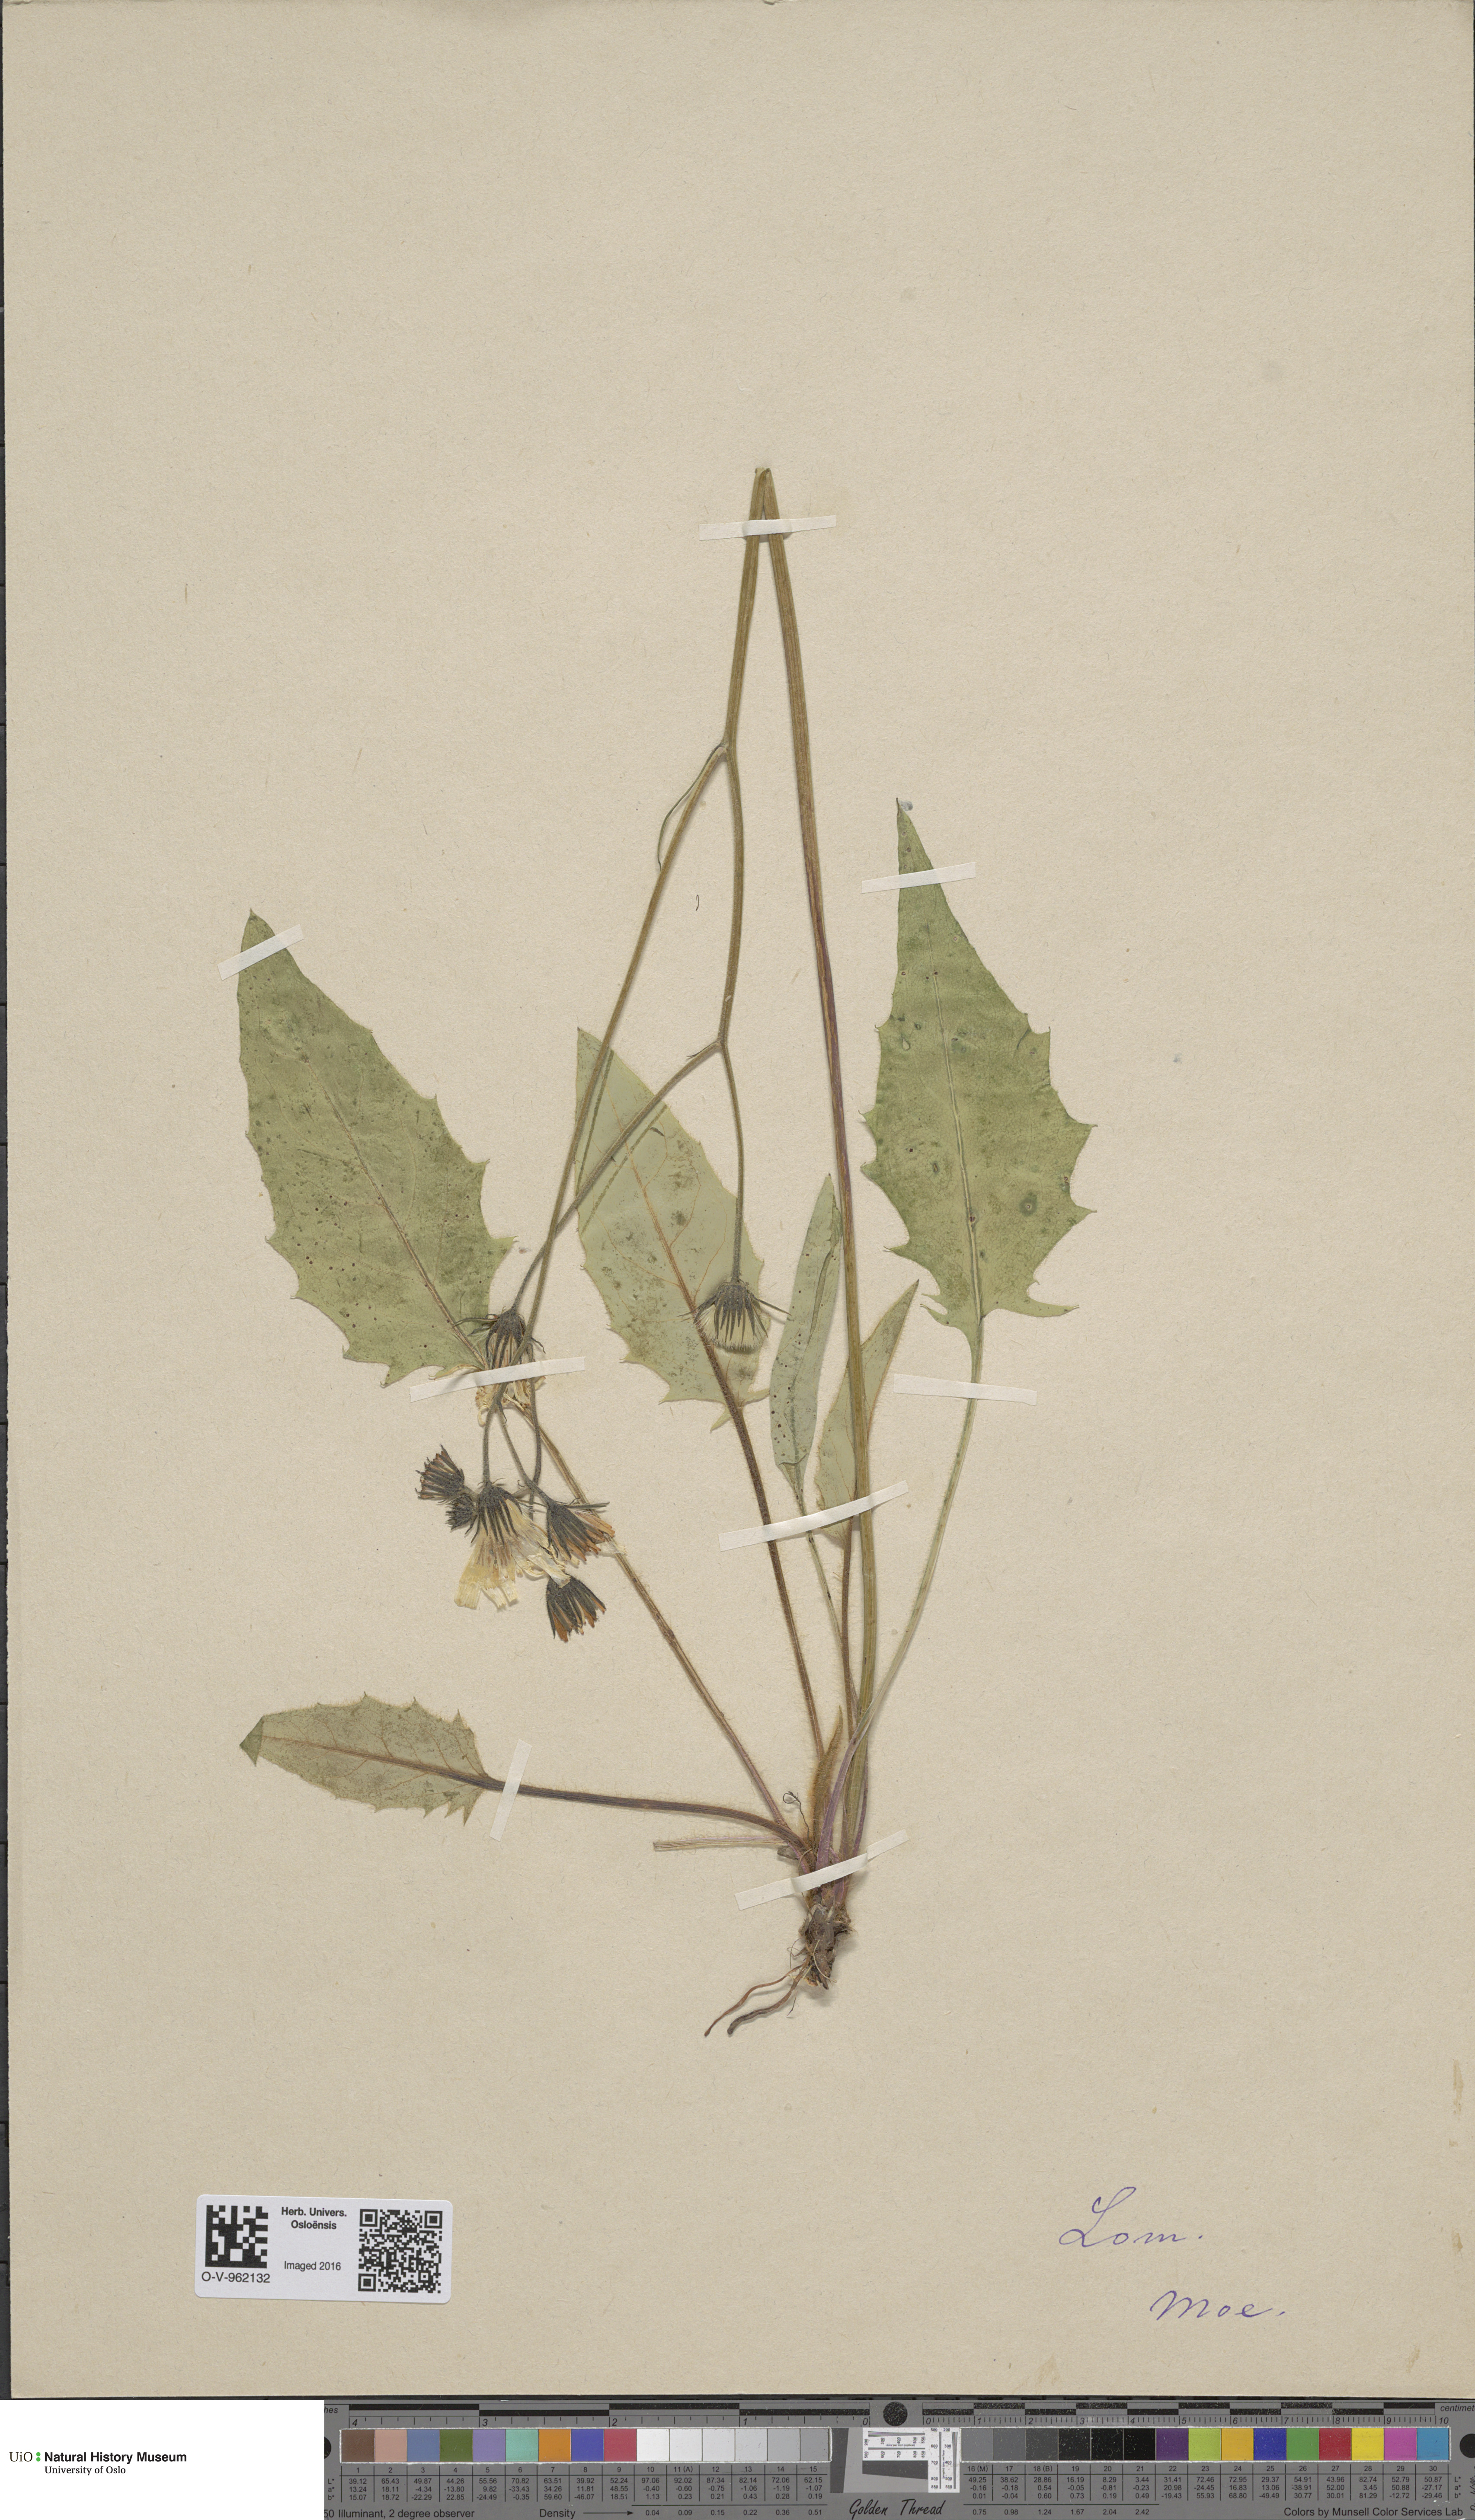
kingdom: Plantae
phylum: Tracheophyta
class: Magnoliopsida
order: Asterales
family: Asteraceae
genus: Hieracium
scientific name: Hieracium
